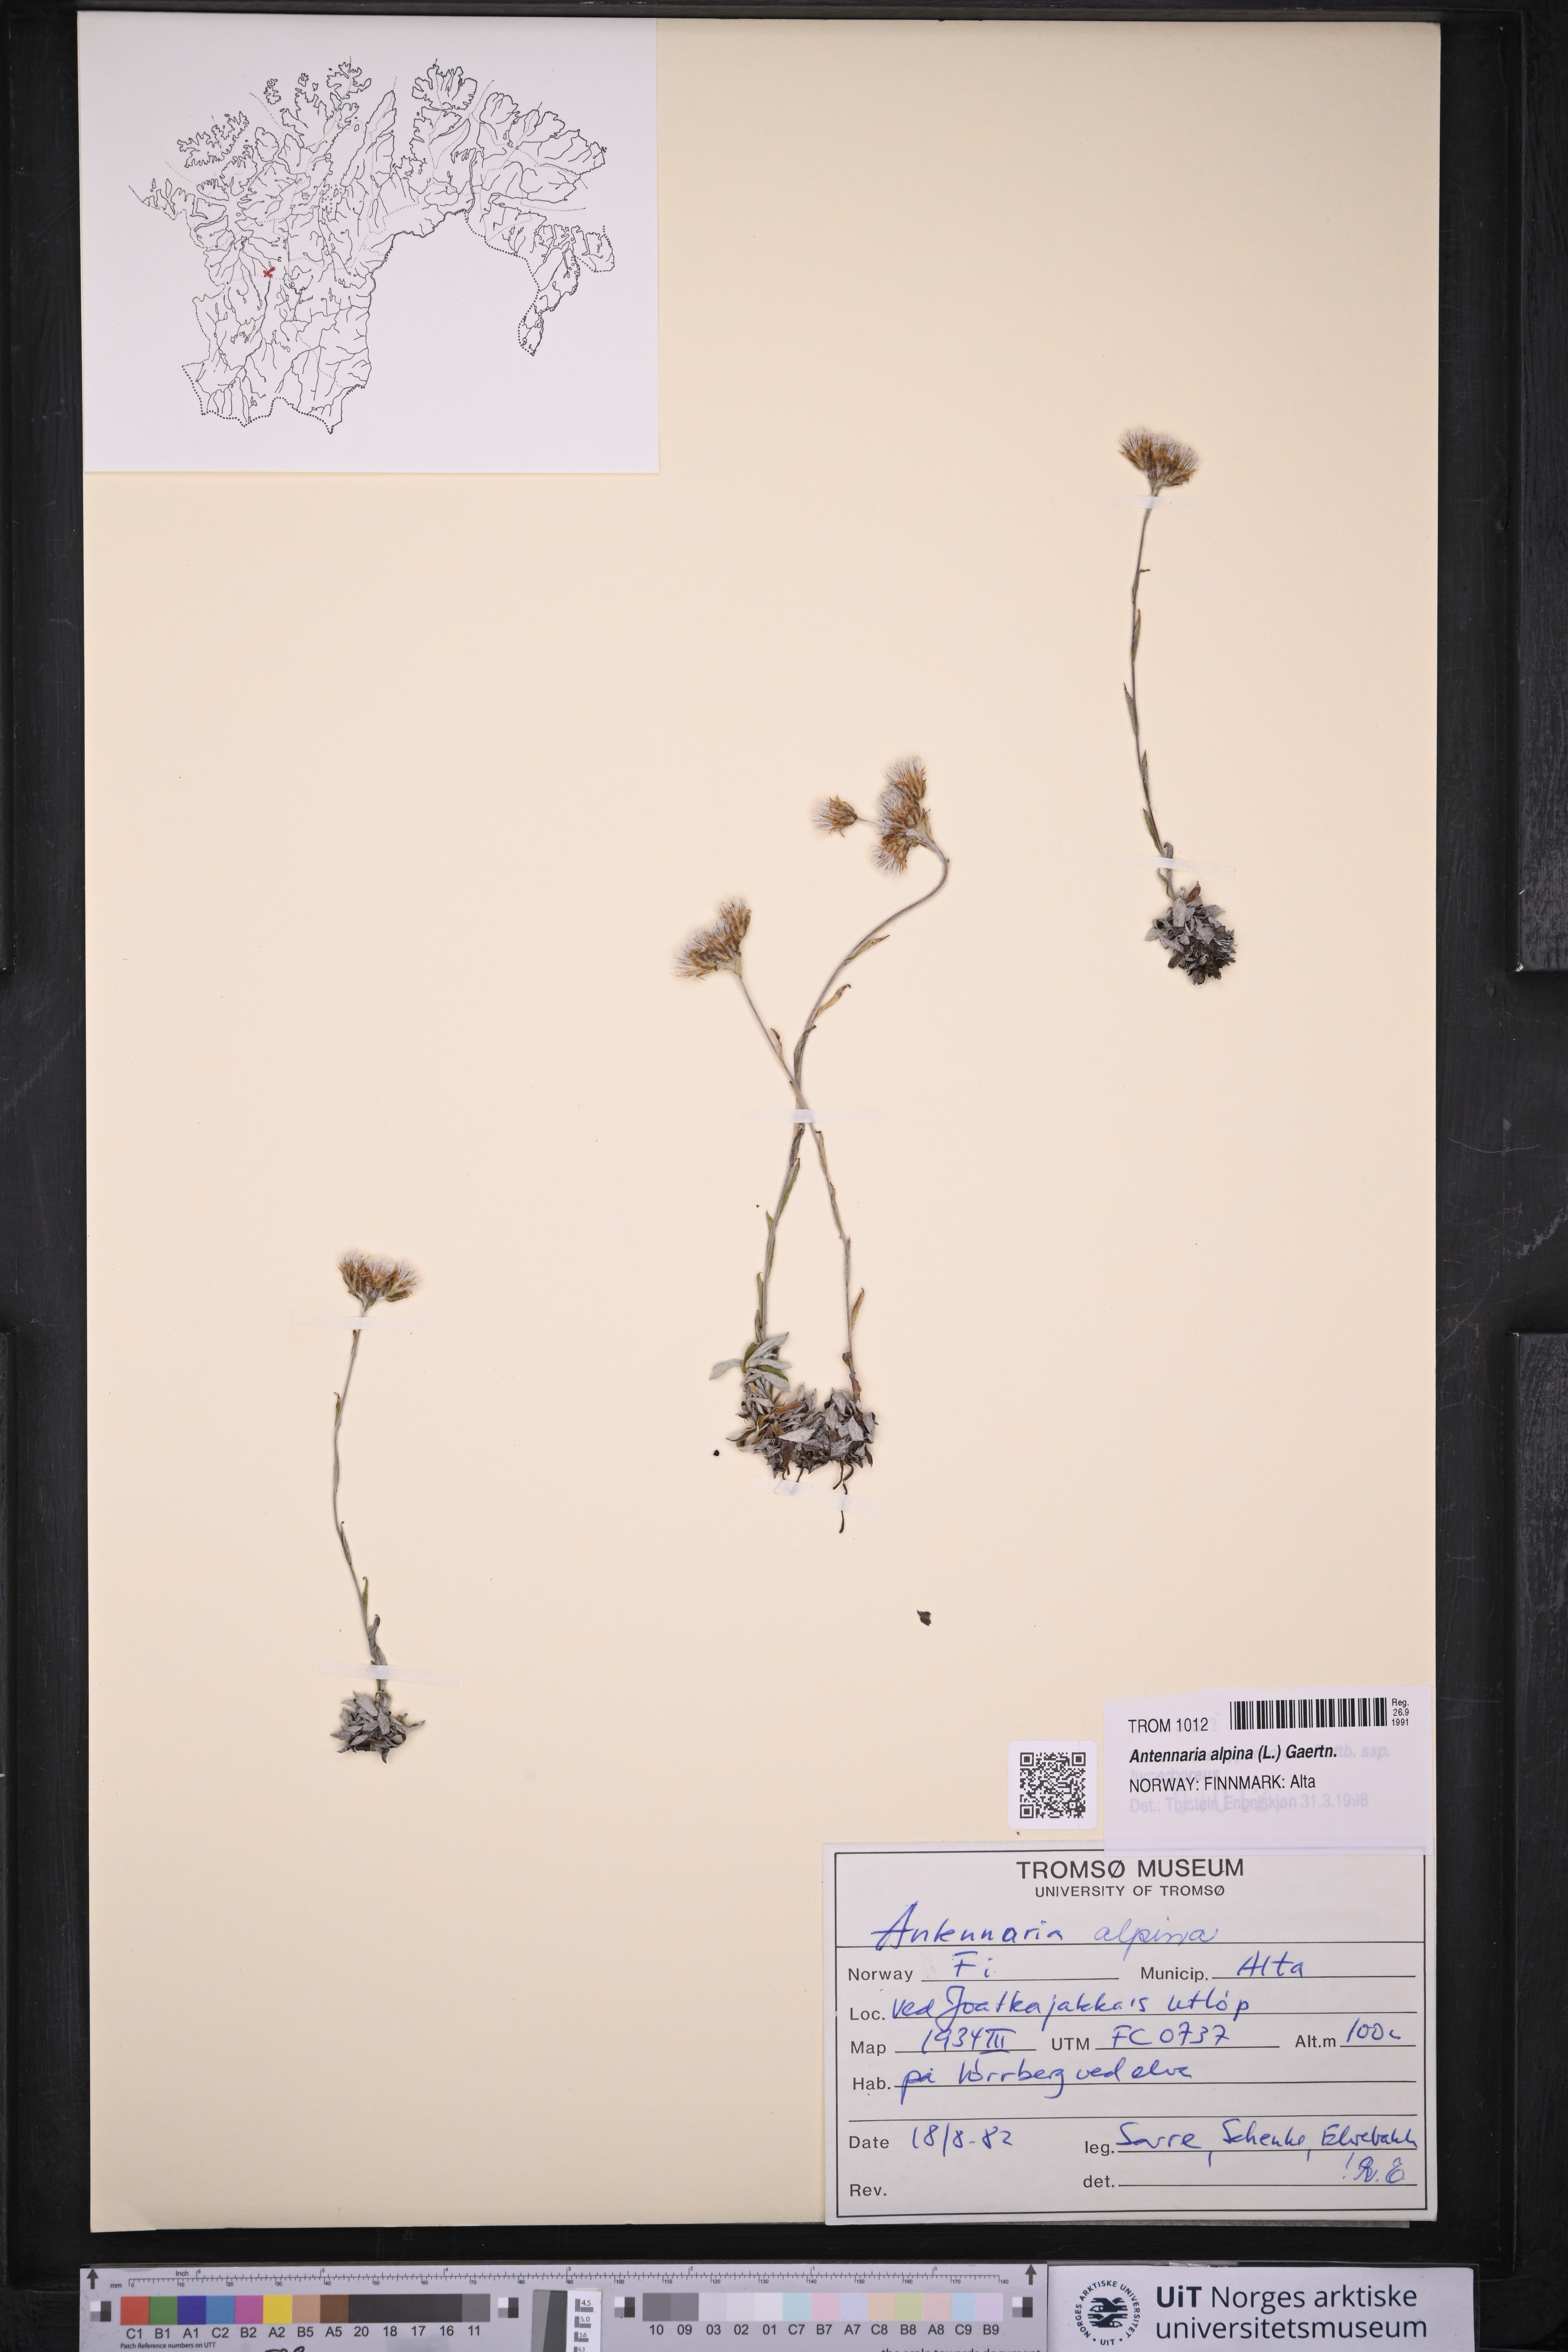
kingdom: Plantae
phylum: Tracheophyta
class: Magnoliopsida
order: Asterales
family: Asteraceae
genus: Antennaria
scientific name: Antennaria alpina
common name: Alpine pussytoes
